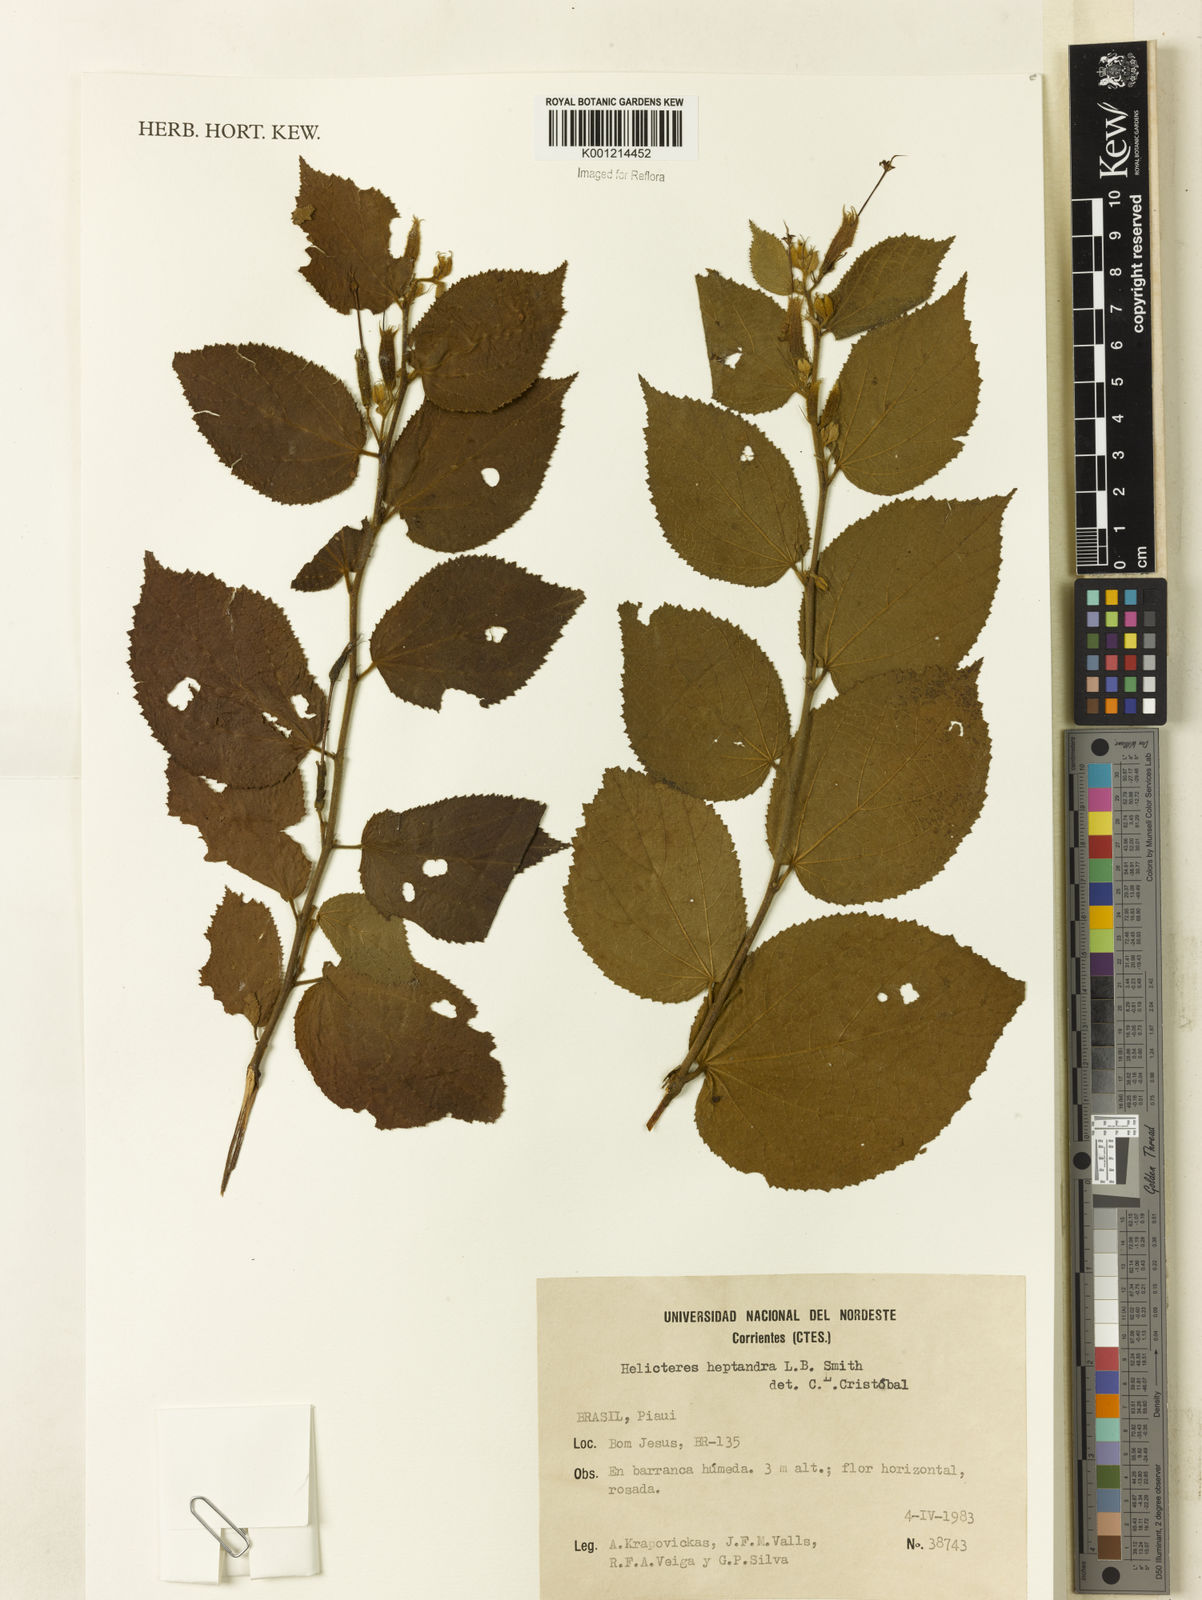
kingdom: Plantae
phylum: Tracheophyta
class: Magnoliopsida
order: Malvales
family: Malvaceae
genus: Helicteres
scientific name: Helicteres heptandra
